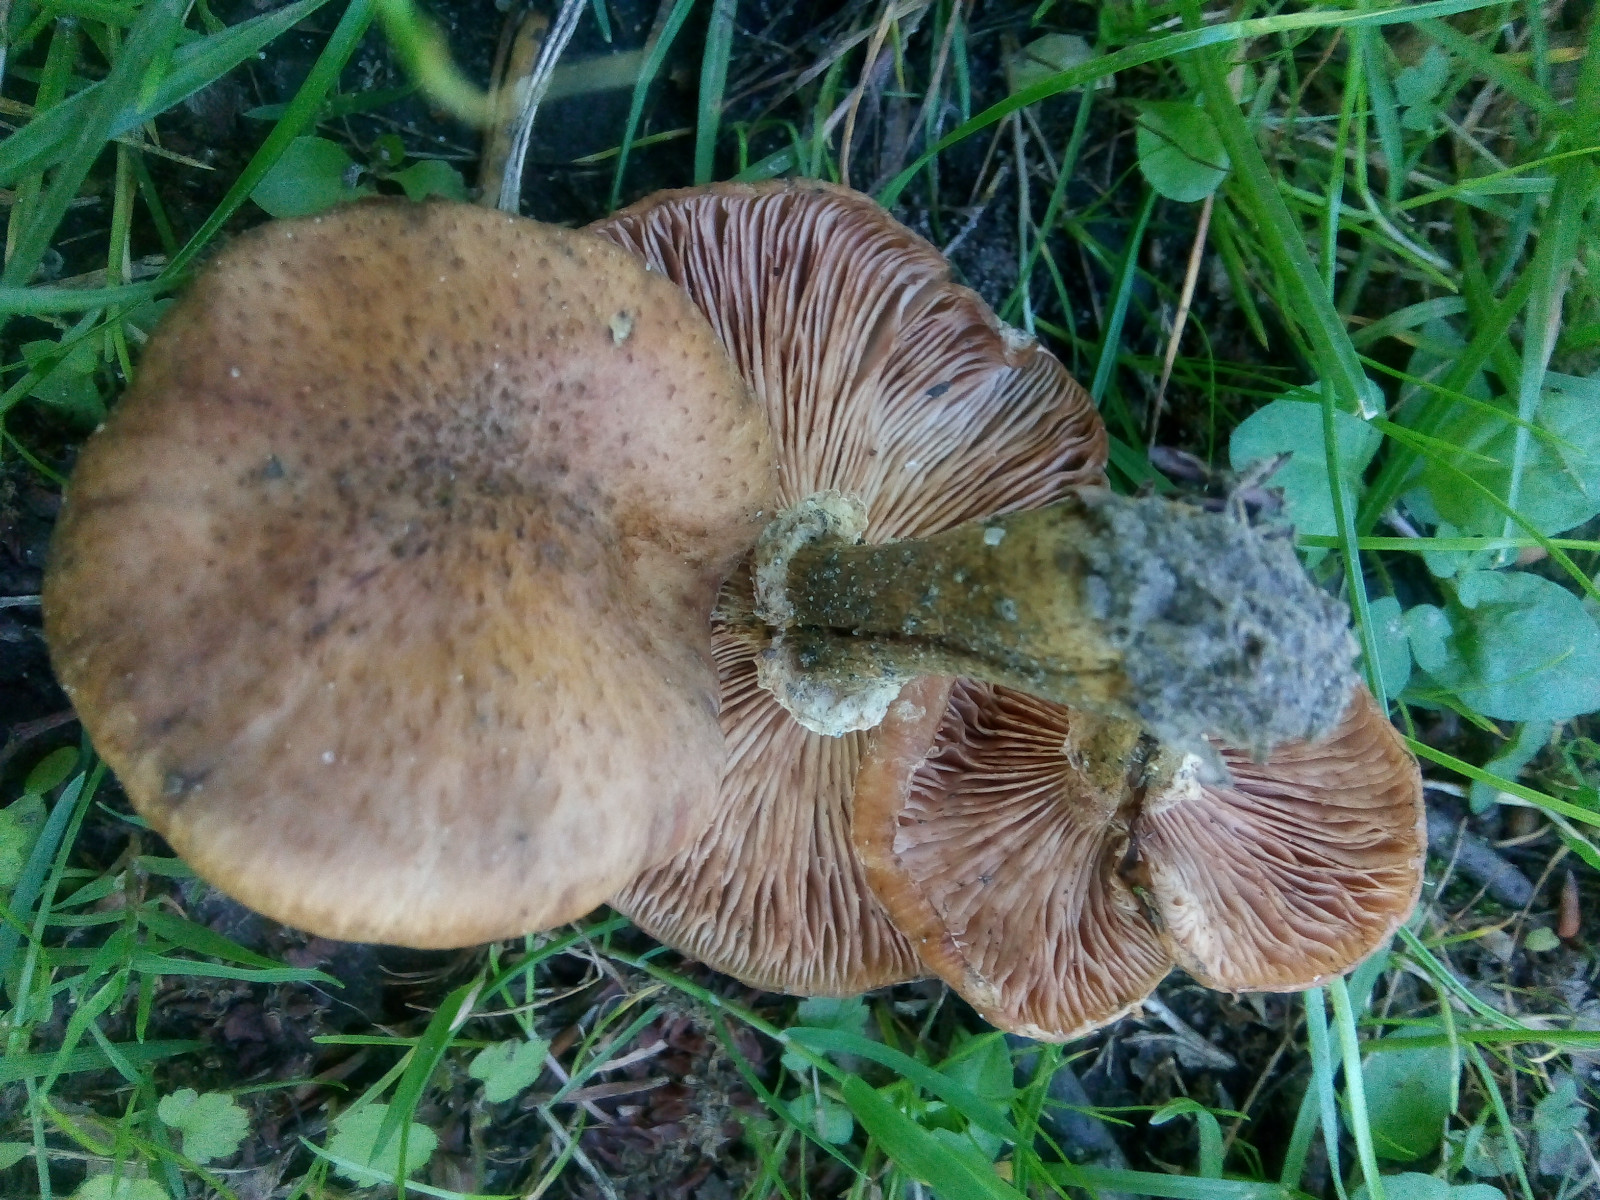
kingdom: Fungi
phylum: Basidiomycota
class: Agaricomycetes
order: Agaricales
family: Physalacriaceae
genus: Armillaria
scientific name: Armillaria lutea
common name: køllestokket honningsvamp
